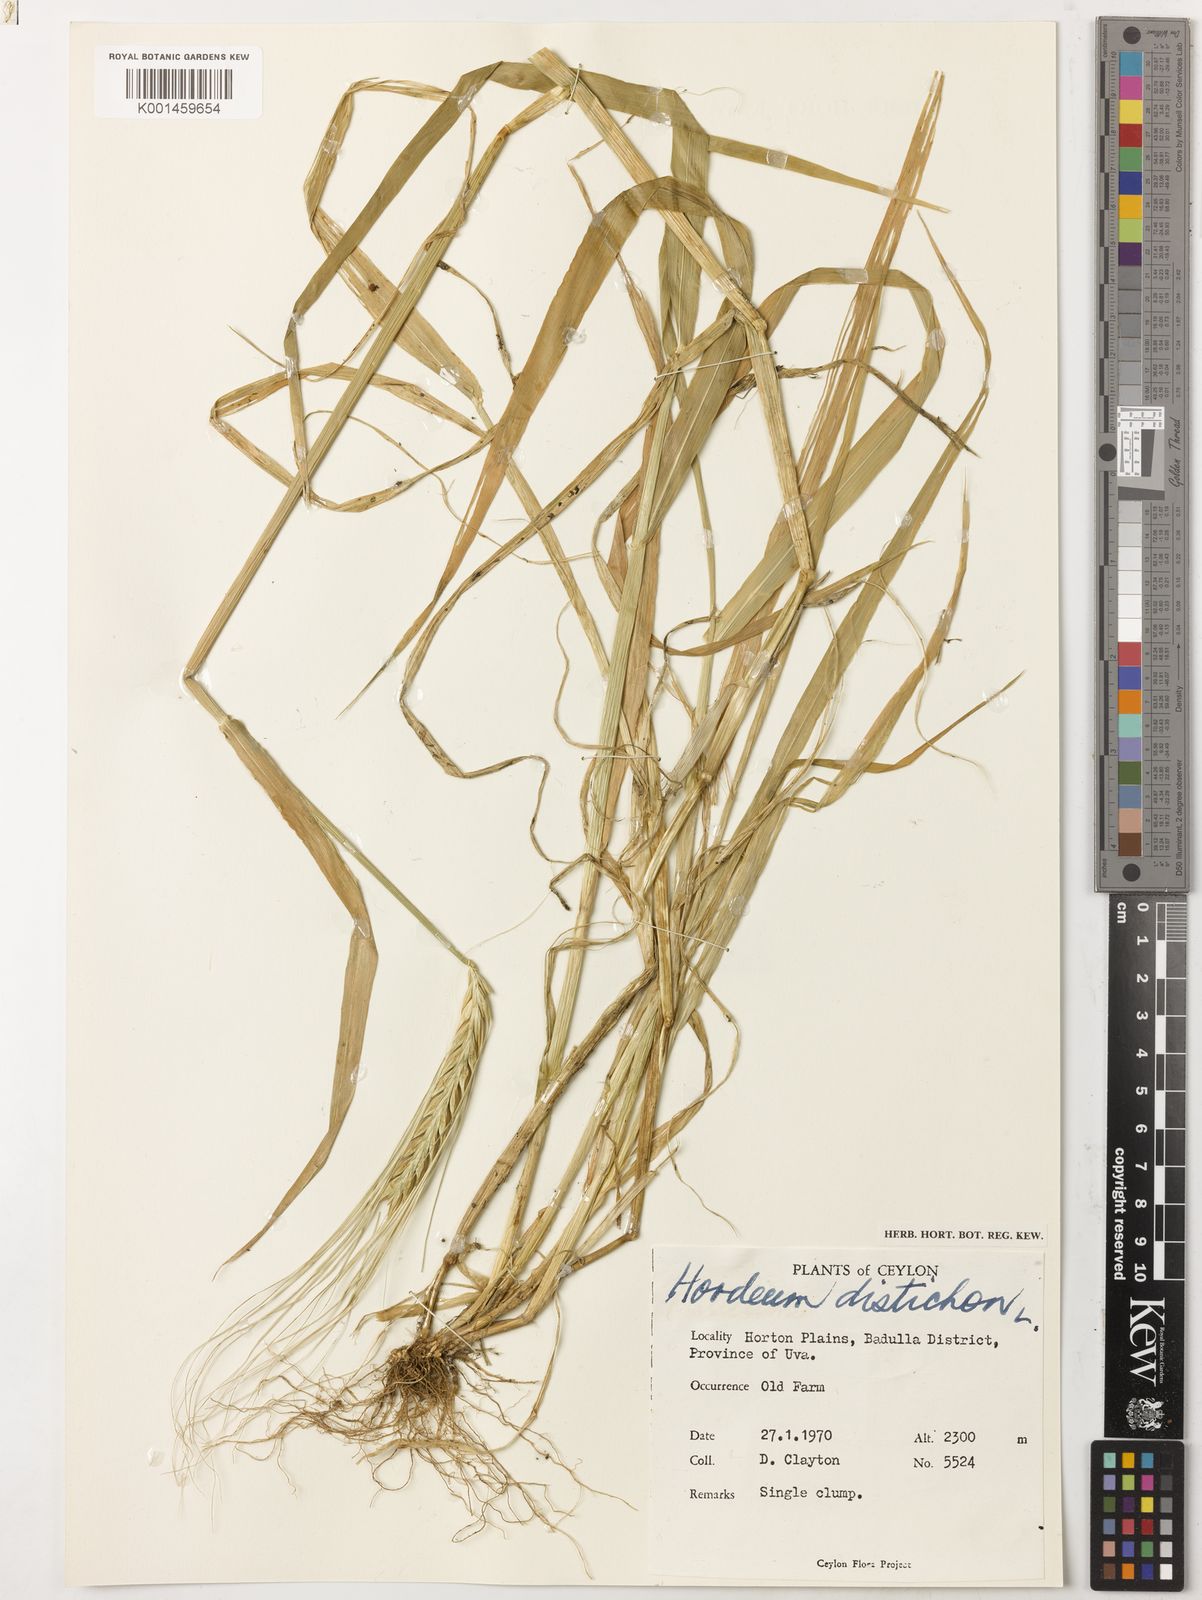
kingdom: Plantae
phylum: Tracheophyta
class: Liliopsida
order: Poales
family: Poaceae
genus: Hordeum
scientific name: Hordeum vulgare
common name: Common barley
